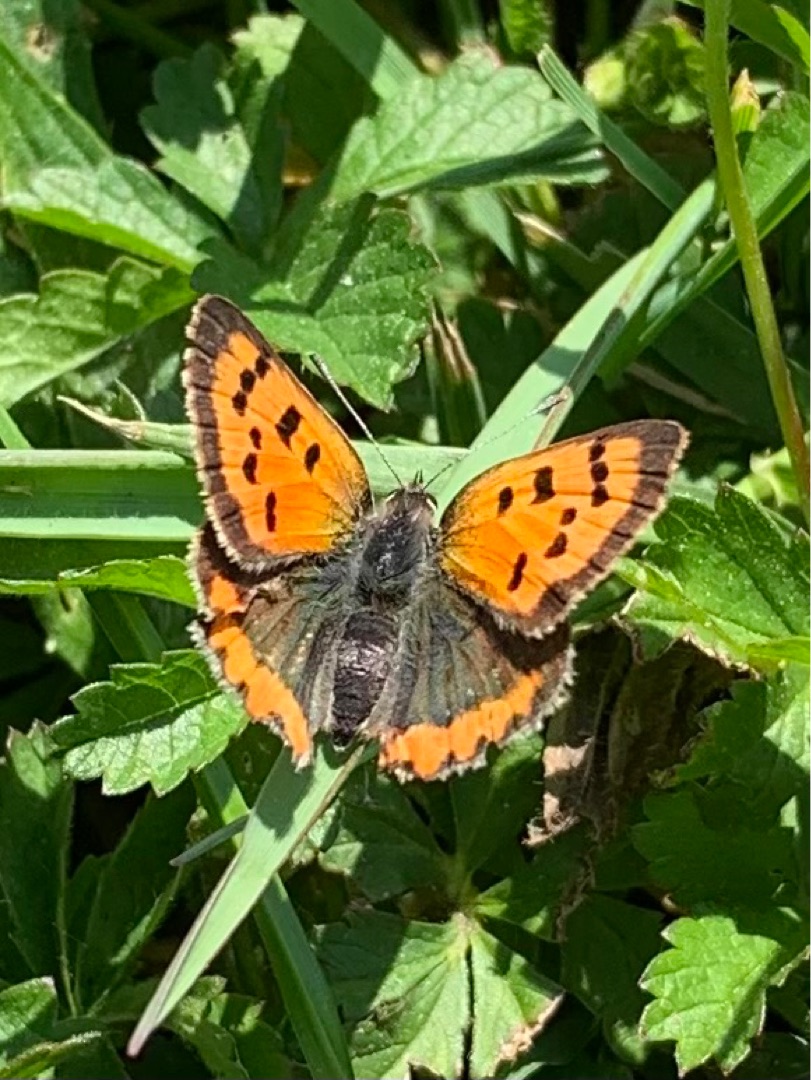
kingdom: Animalia
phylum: Arthropoda
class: Insecta
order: Lepidoptera
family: Lycaenidae
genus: Lycaena
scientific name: Lycaena phlaeas
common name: Lille ildfugl
